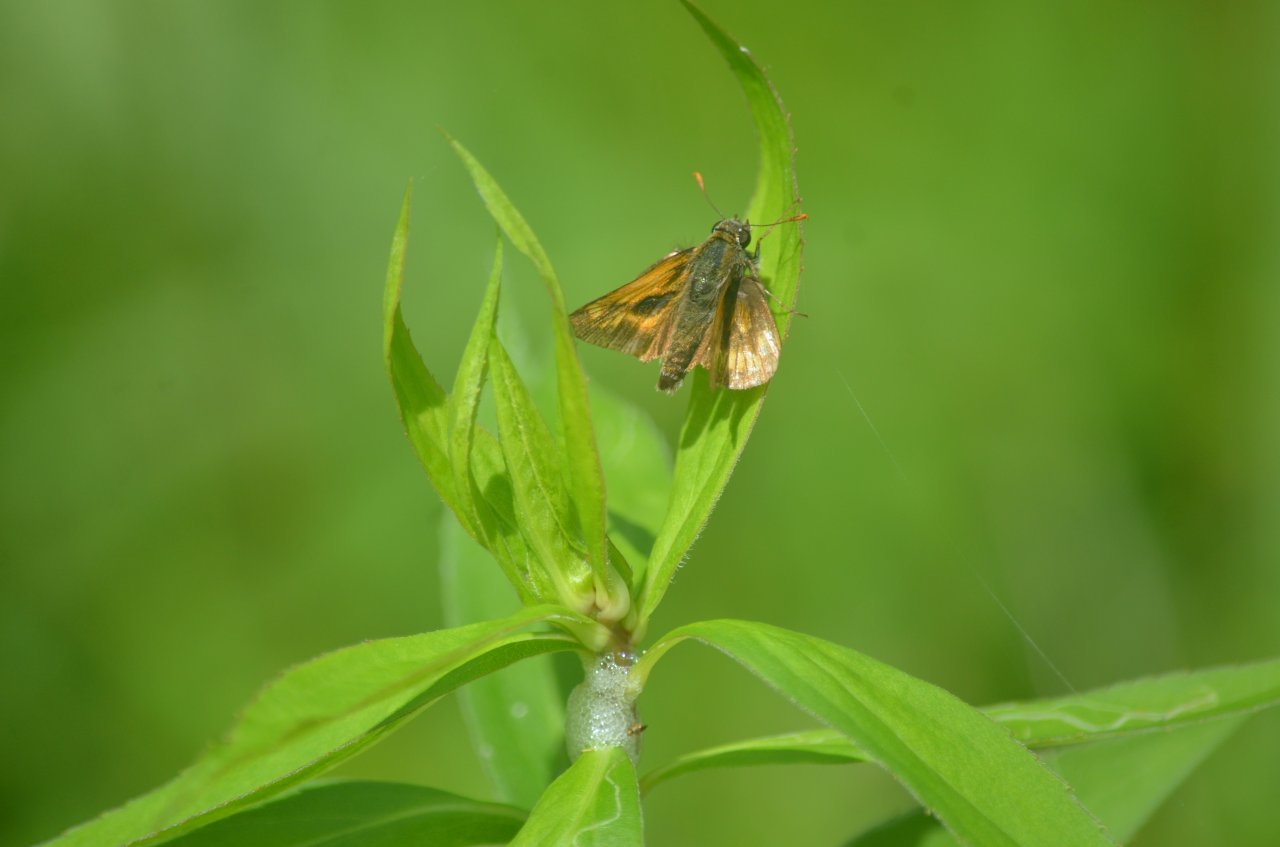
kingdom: Animalia
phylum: Arthropoda
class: Insecta
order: Lepidoptera
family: Hesperiidae
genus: Polites
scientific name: Polites
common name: Long Dash Skipper
